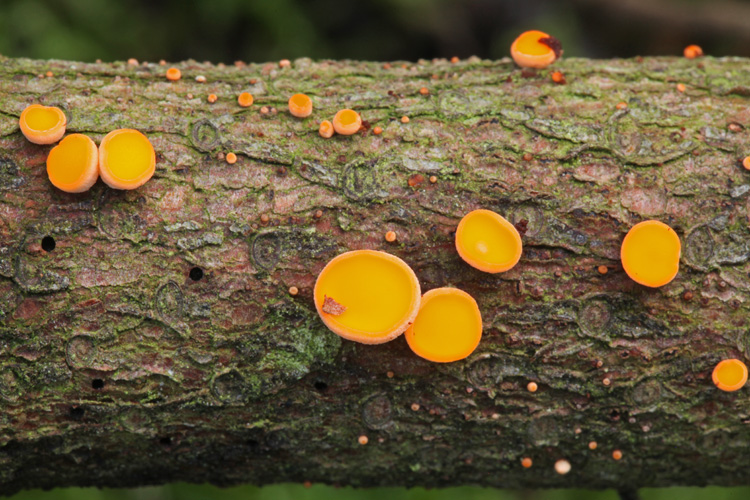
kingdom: Fungi
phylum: Ascomycota
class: Pezizomycetes
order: Pezizales
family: Sarcoscyphaceae
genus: Pithya
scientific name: Pithya vulgaris
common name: stor dukatbæger
